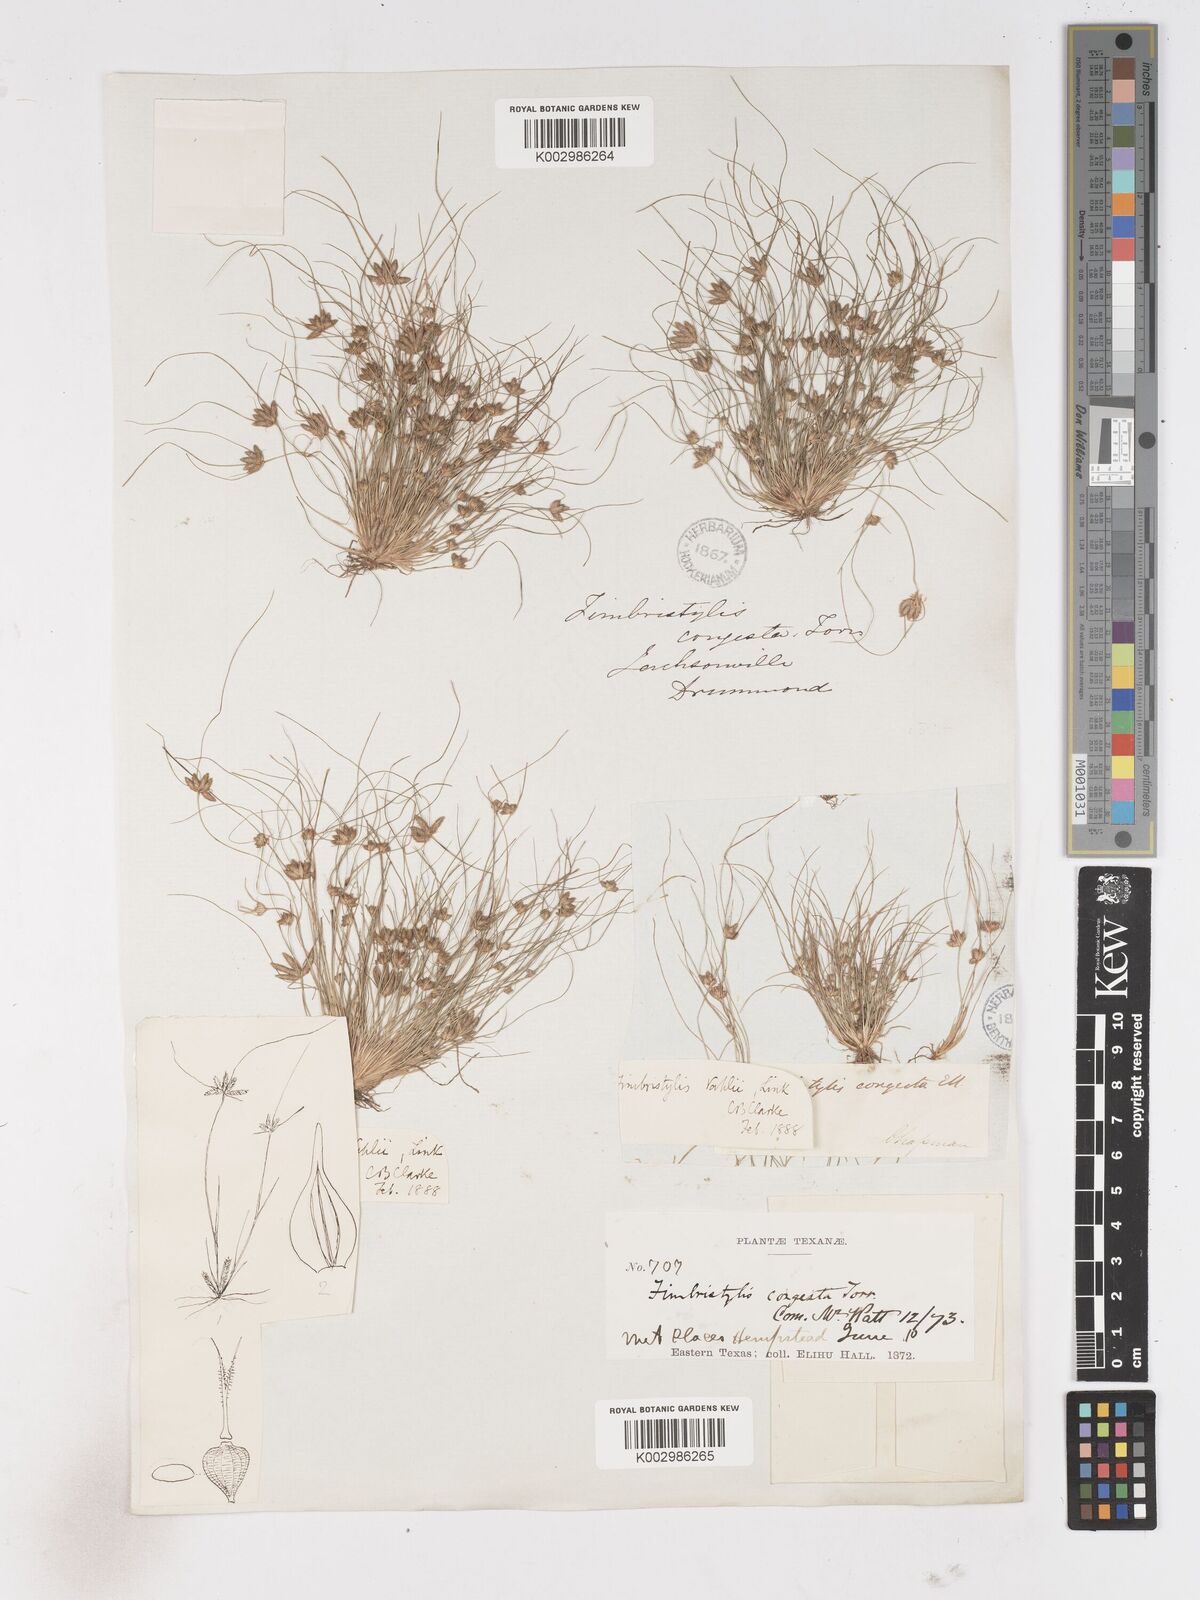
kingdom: Plantae
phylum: Tracheophyta
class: Liliopsida
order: Poales
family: Cyperaceae
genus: Fimbristylis
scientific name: Fimbristylis vahlii
